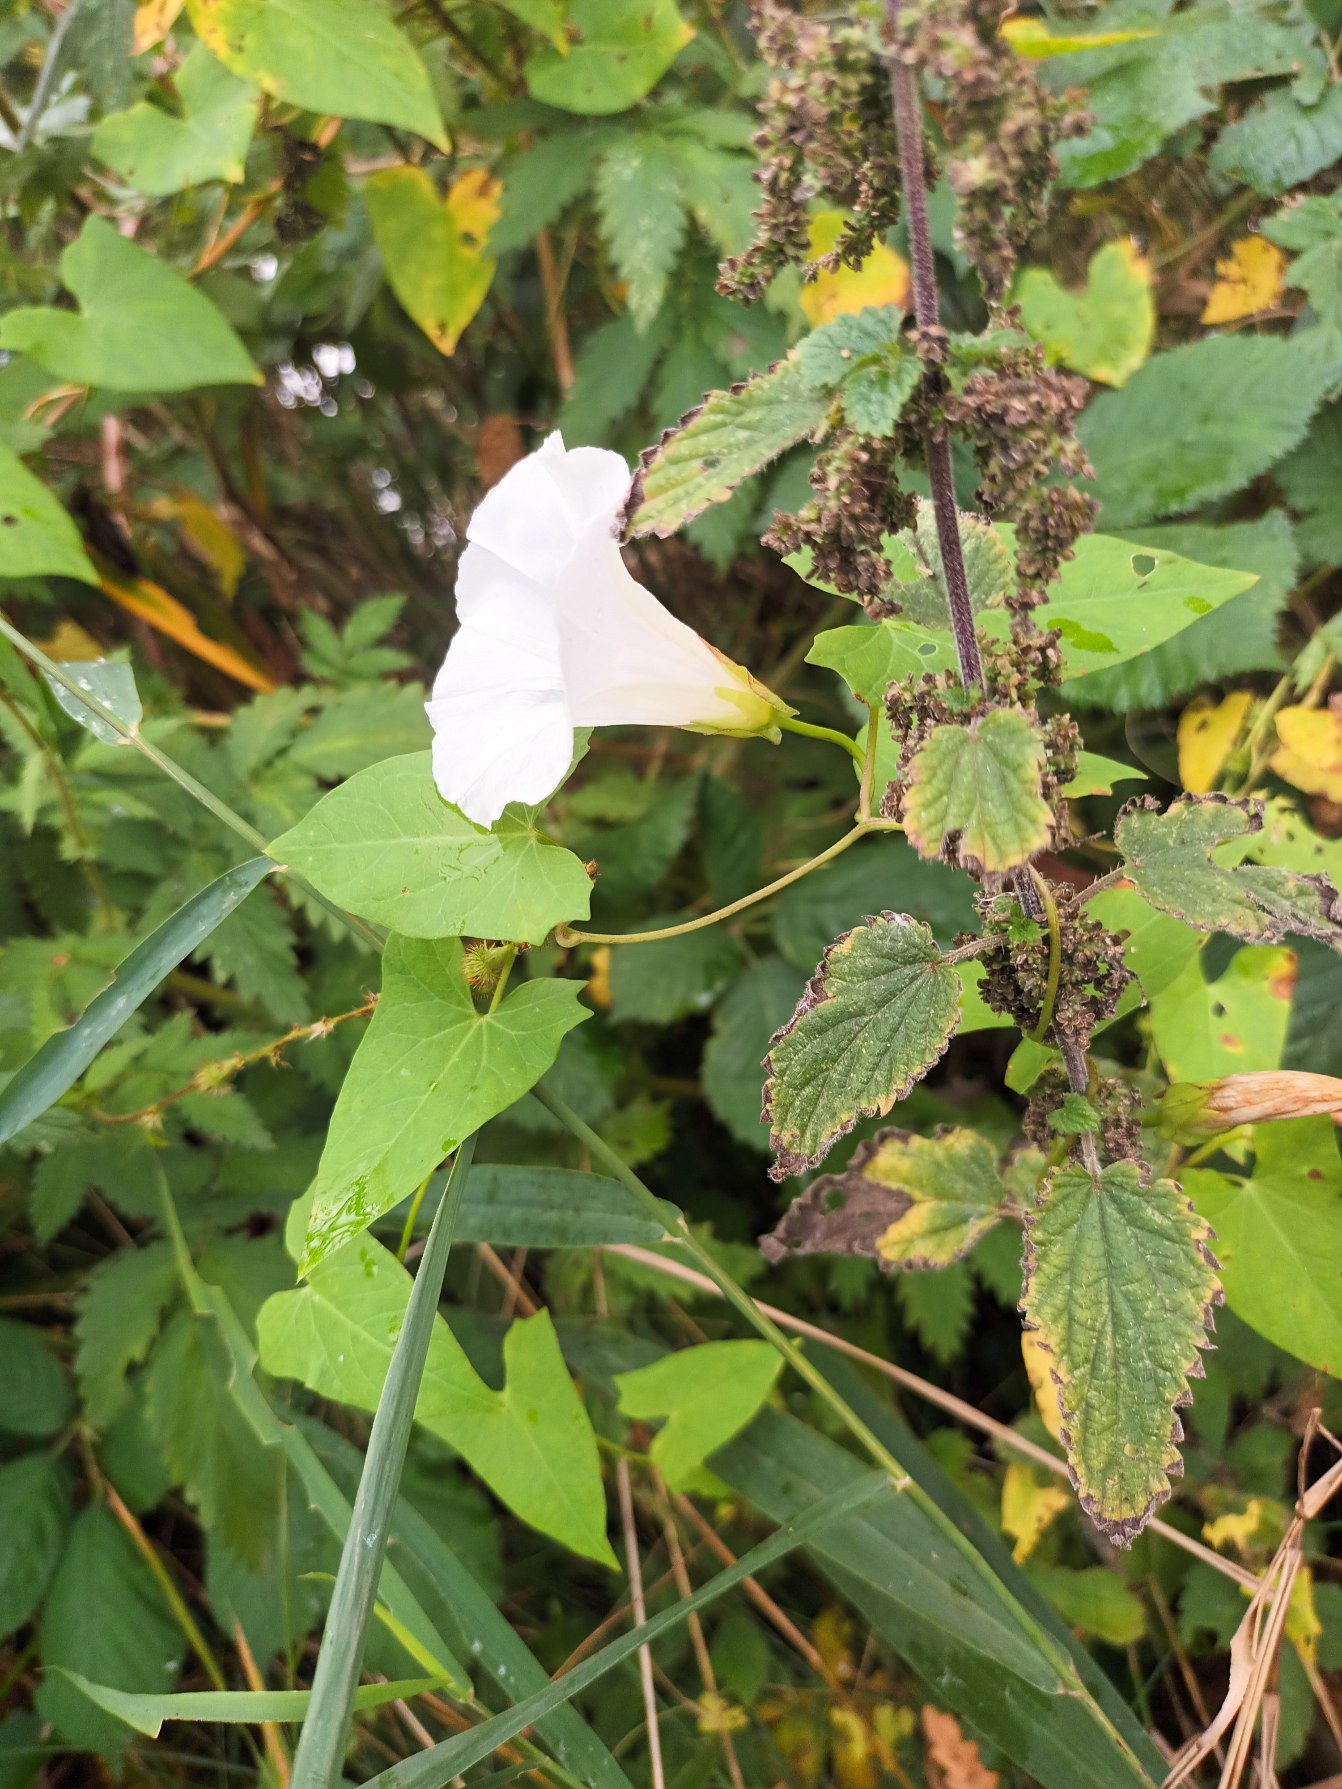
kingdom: Plantae
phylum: Tracheophyta
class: Magnoliopsida
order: Solanales
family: Convolvulaceae
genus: Calystegia
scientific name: Calystegia sepium
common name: Gærde-snerle
